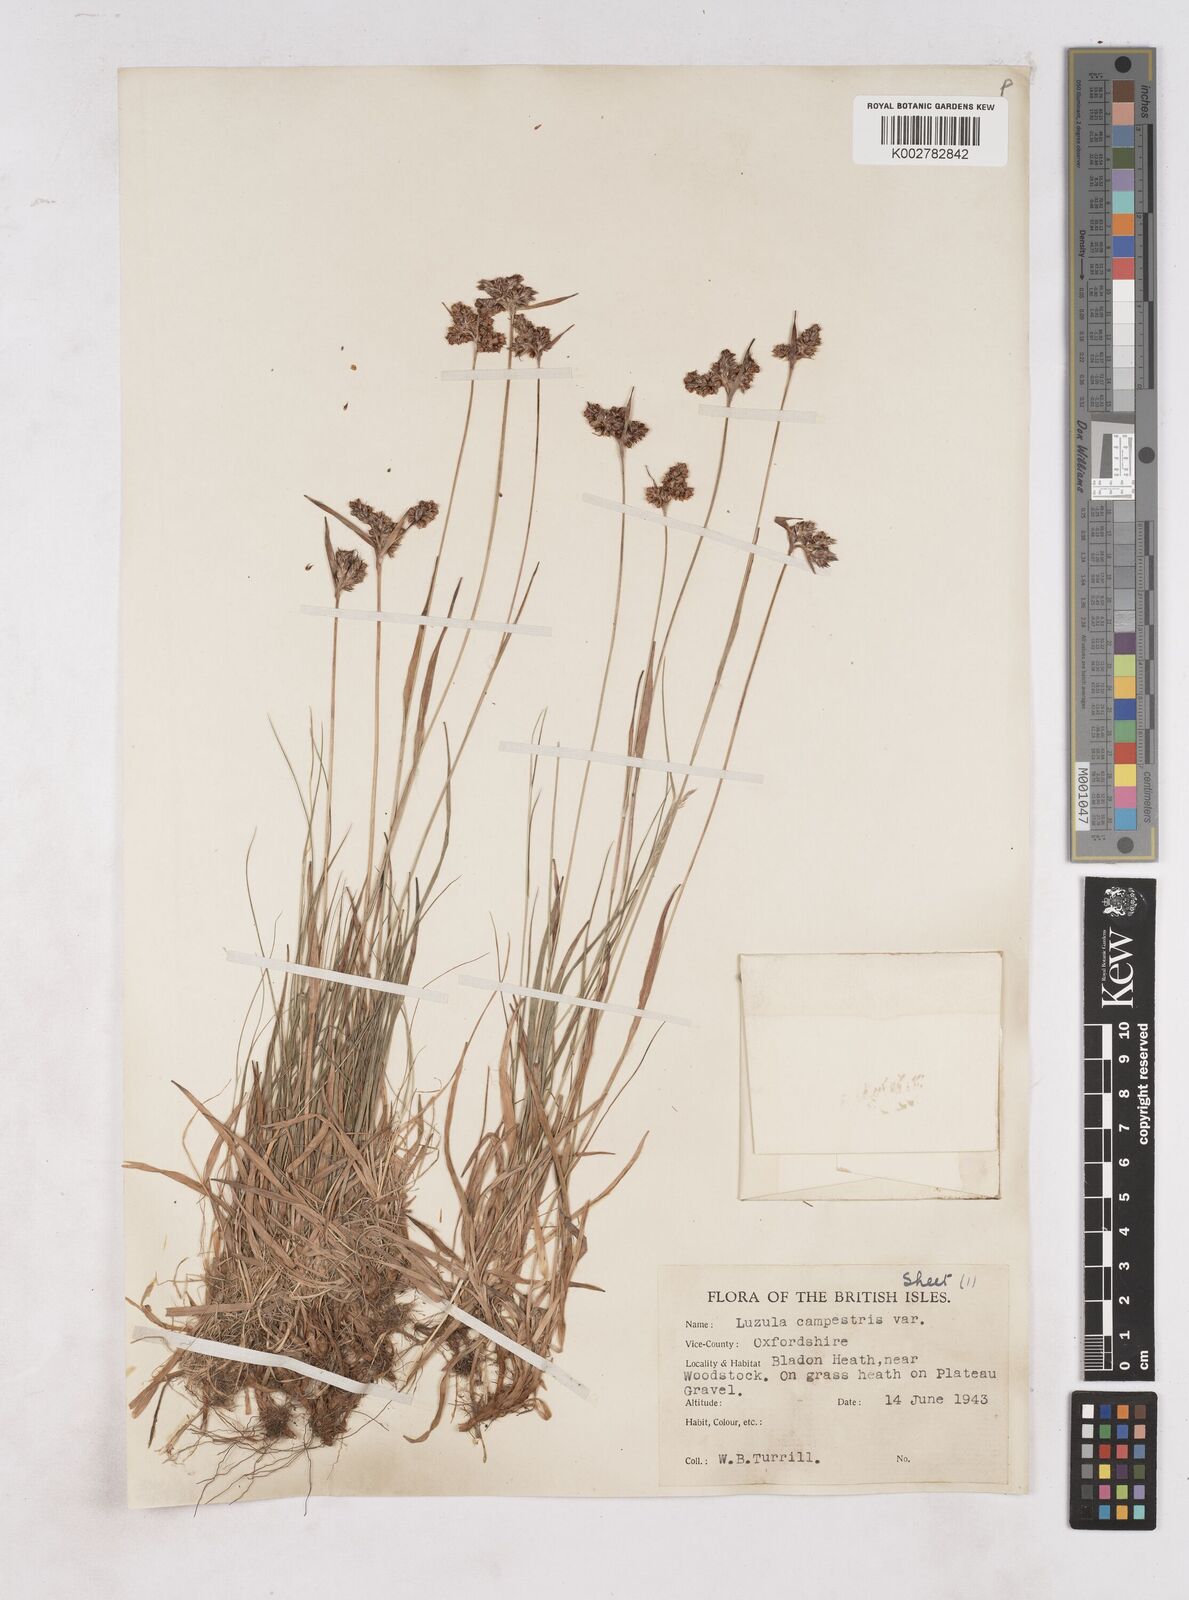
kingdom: Plantae
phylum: Tracheophyta
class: Liliopsida
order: Poales
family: Juncaceae
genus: Luzula
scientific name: Luzula campestris
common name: Field wood-rush
